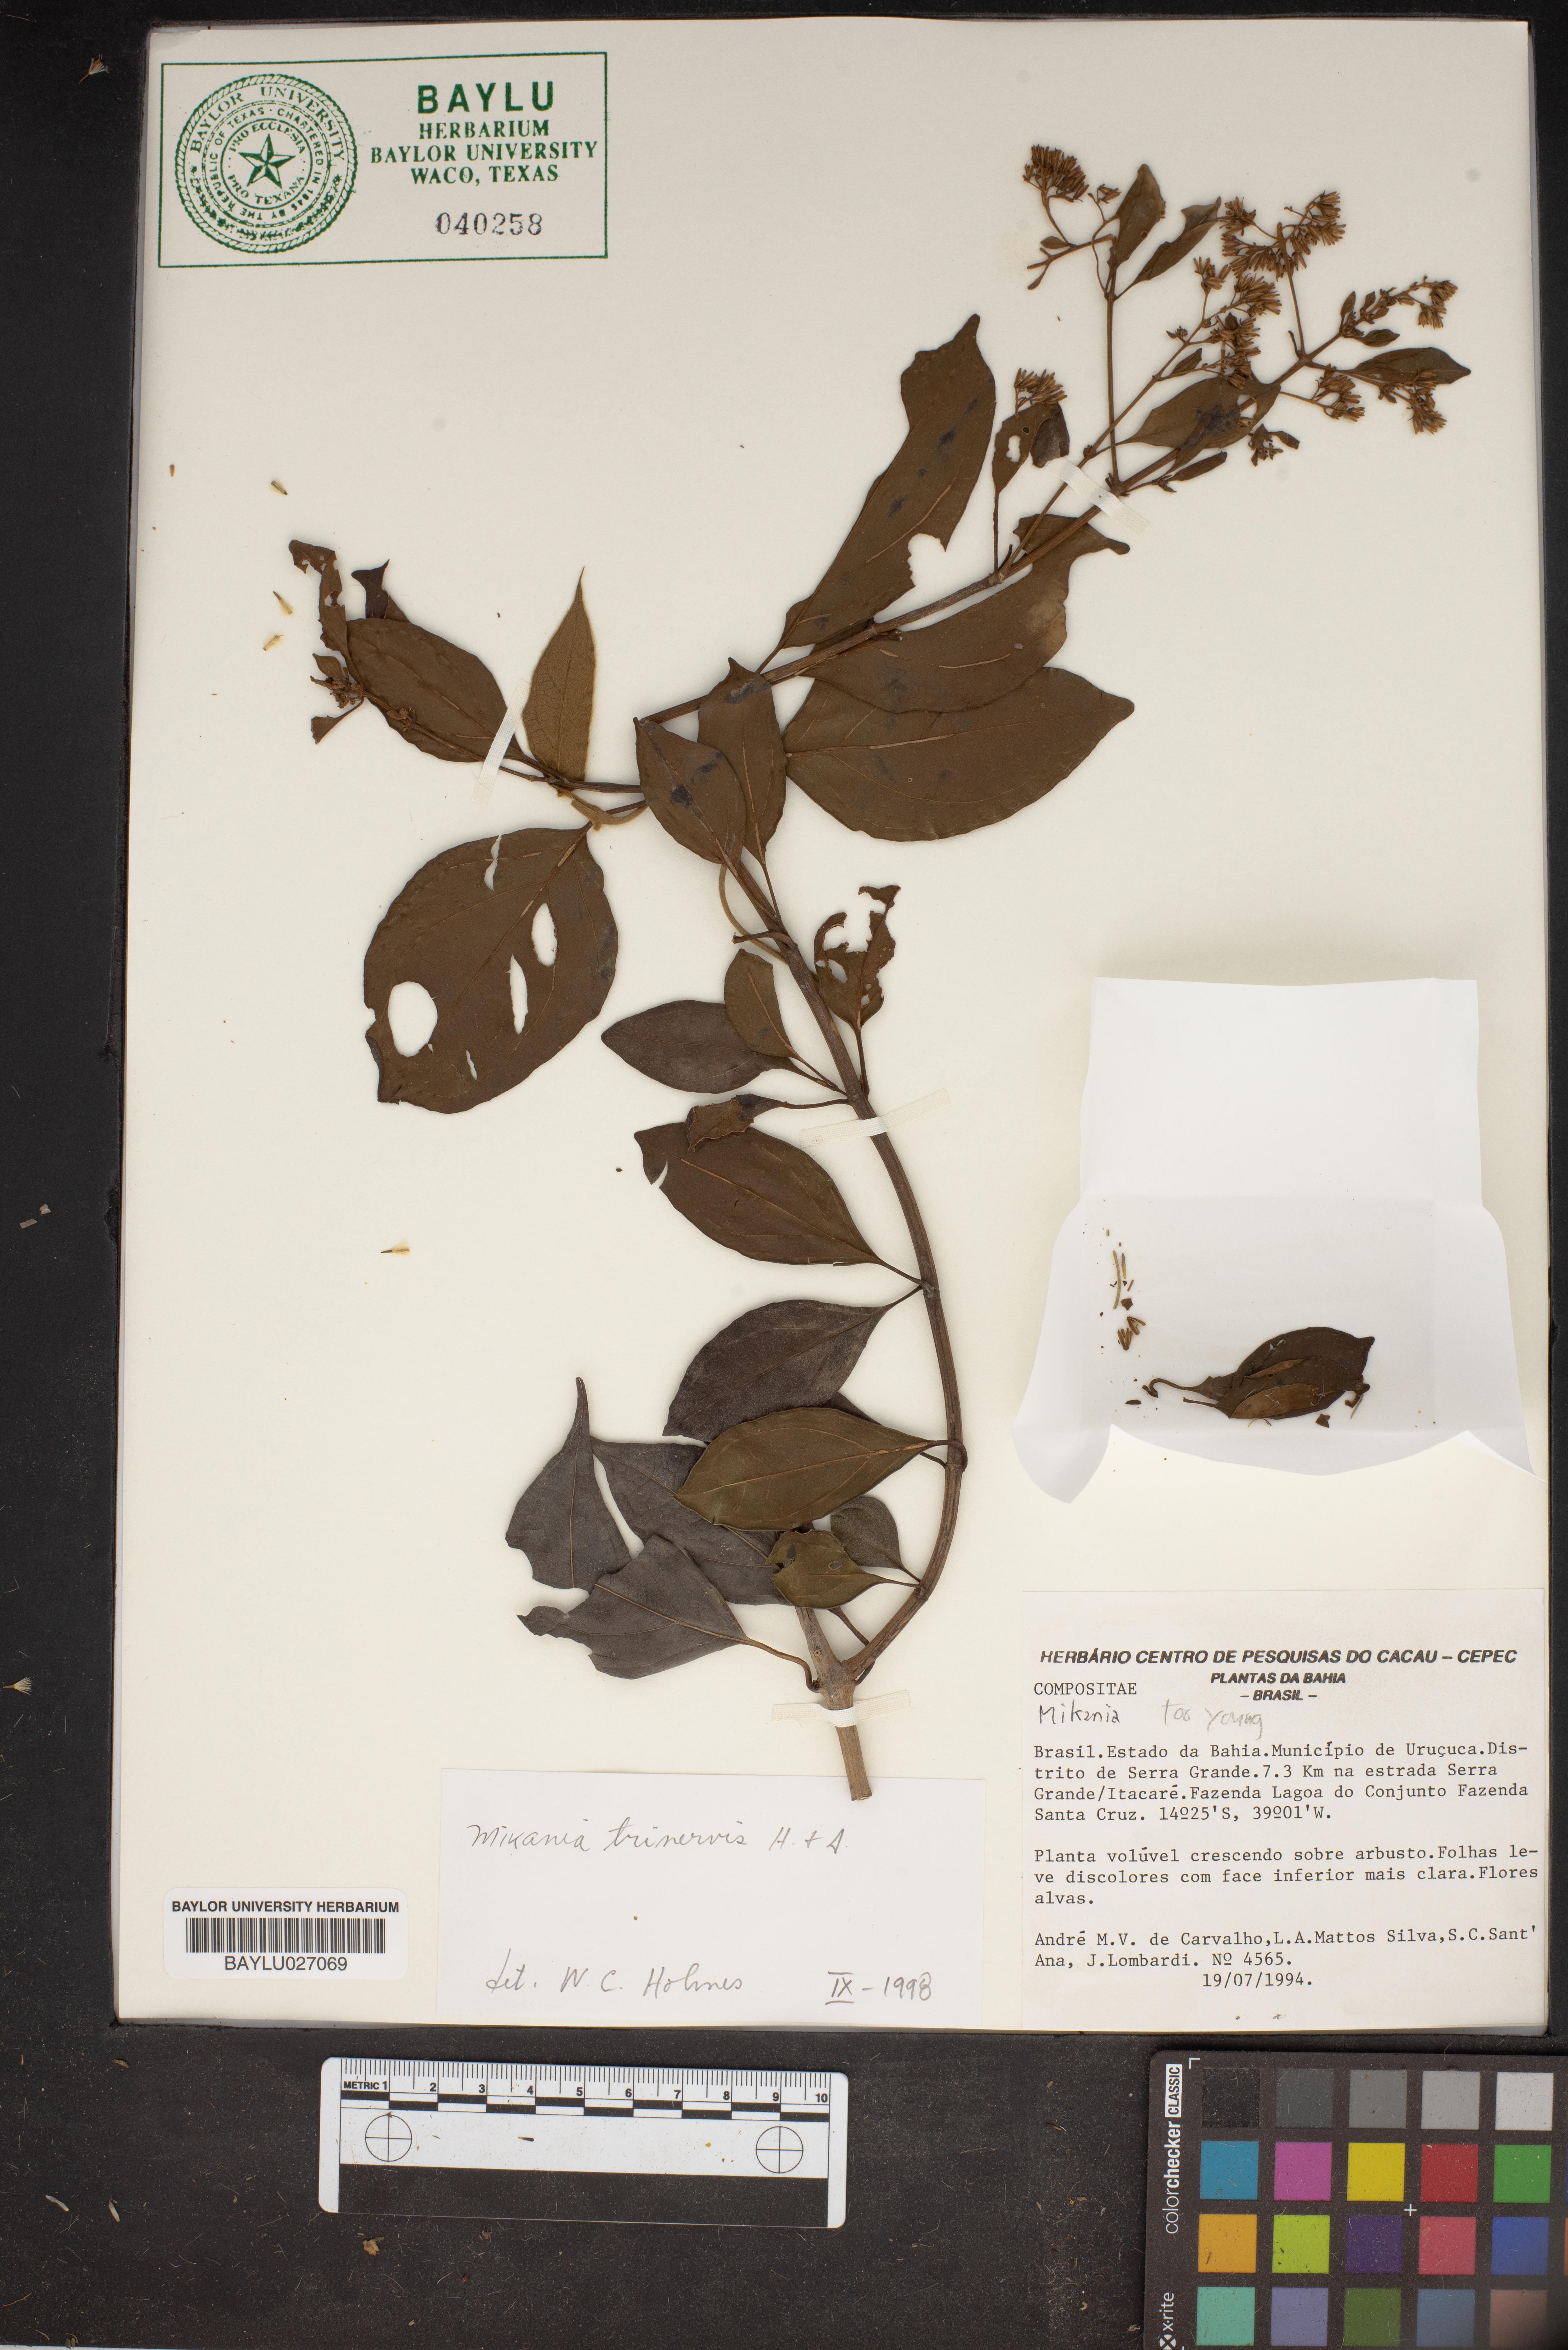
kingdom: Plantae
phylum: Tracheophyta
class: Magnoliopsida
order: Asterales
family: Asteraceae
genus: Mikania
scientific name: Mikania trinervis
